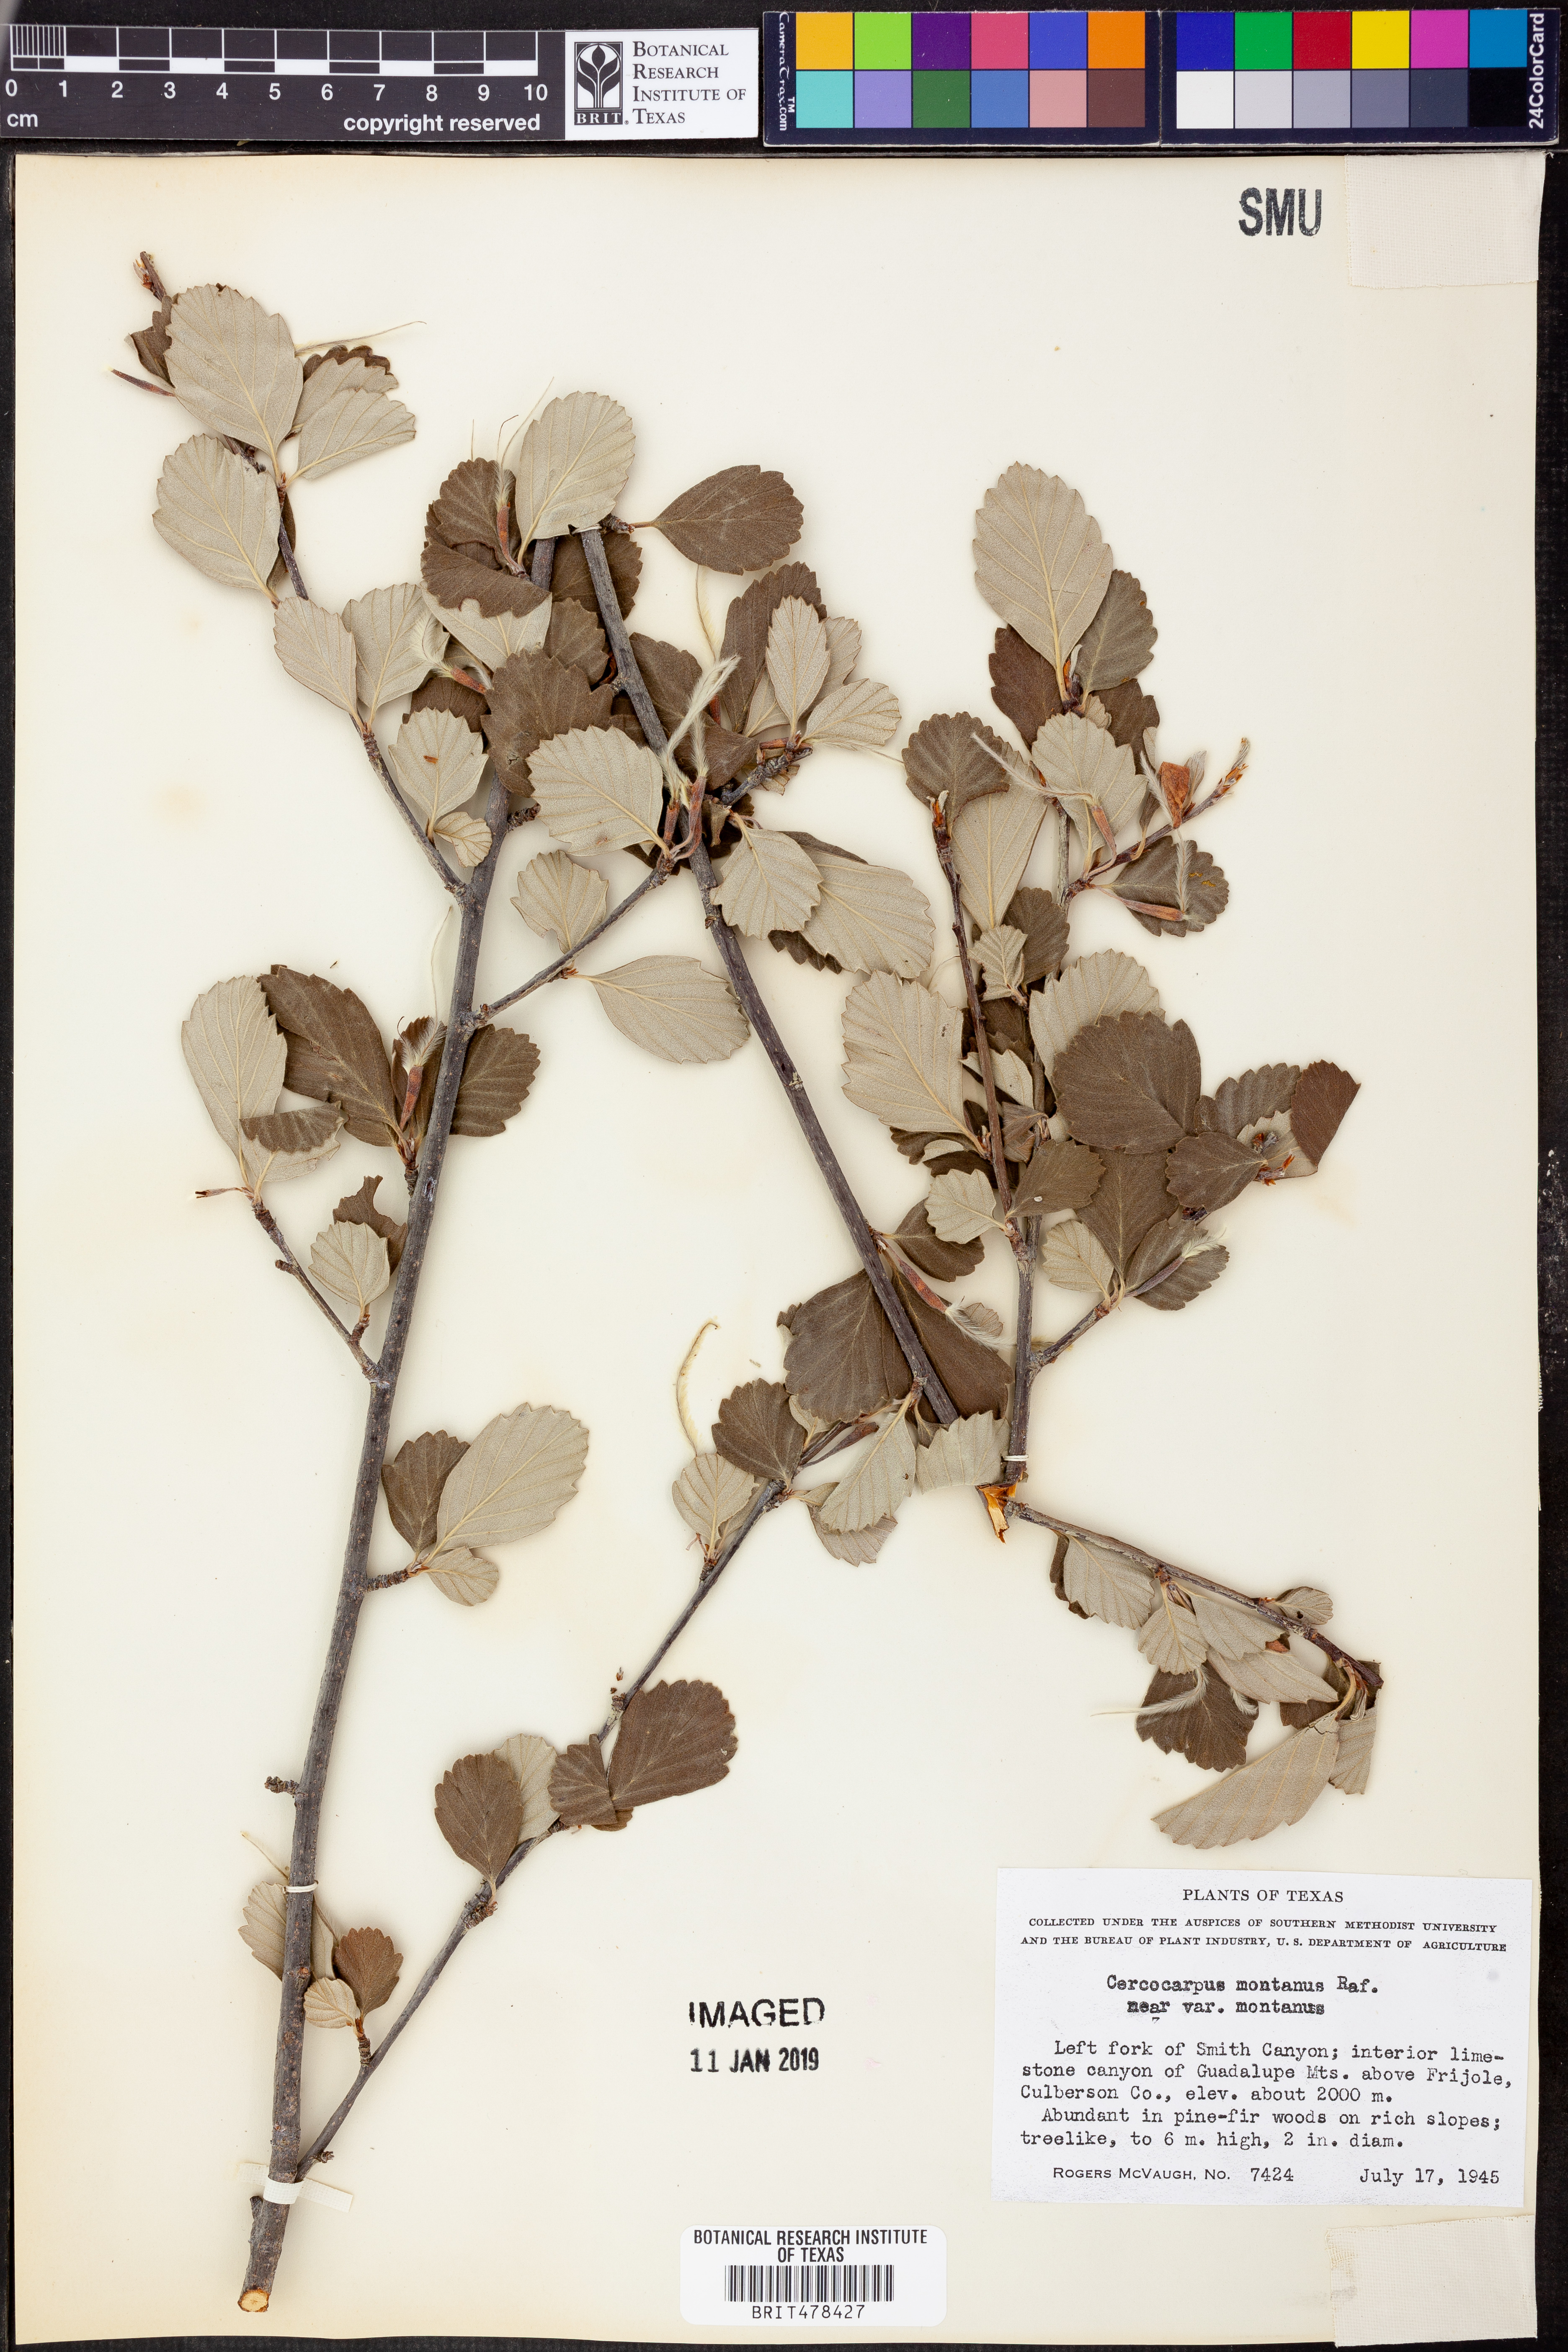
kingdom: Plantae
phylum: Tracheophyta
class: Magnoliopsida
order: Rosales
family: Rosaceae
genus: Cercocarpus
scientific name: Cercocarpus montanus
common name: Alder-leaf cercocarpus
